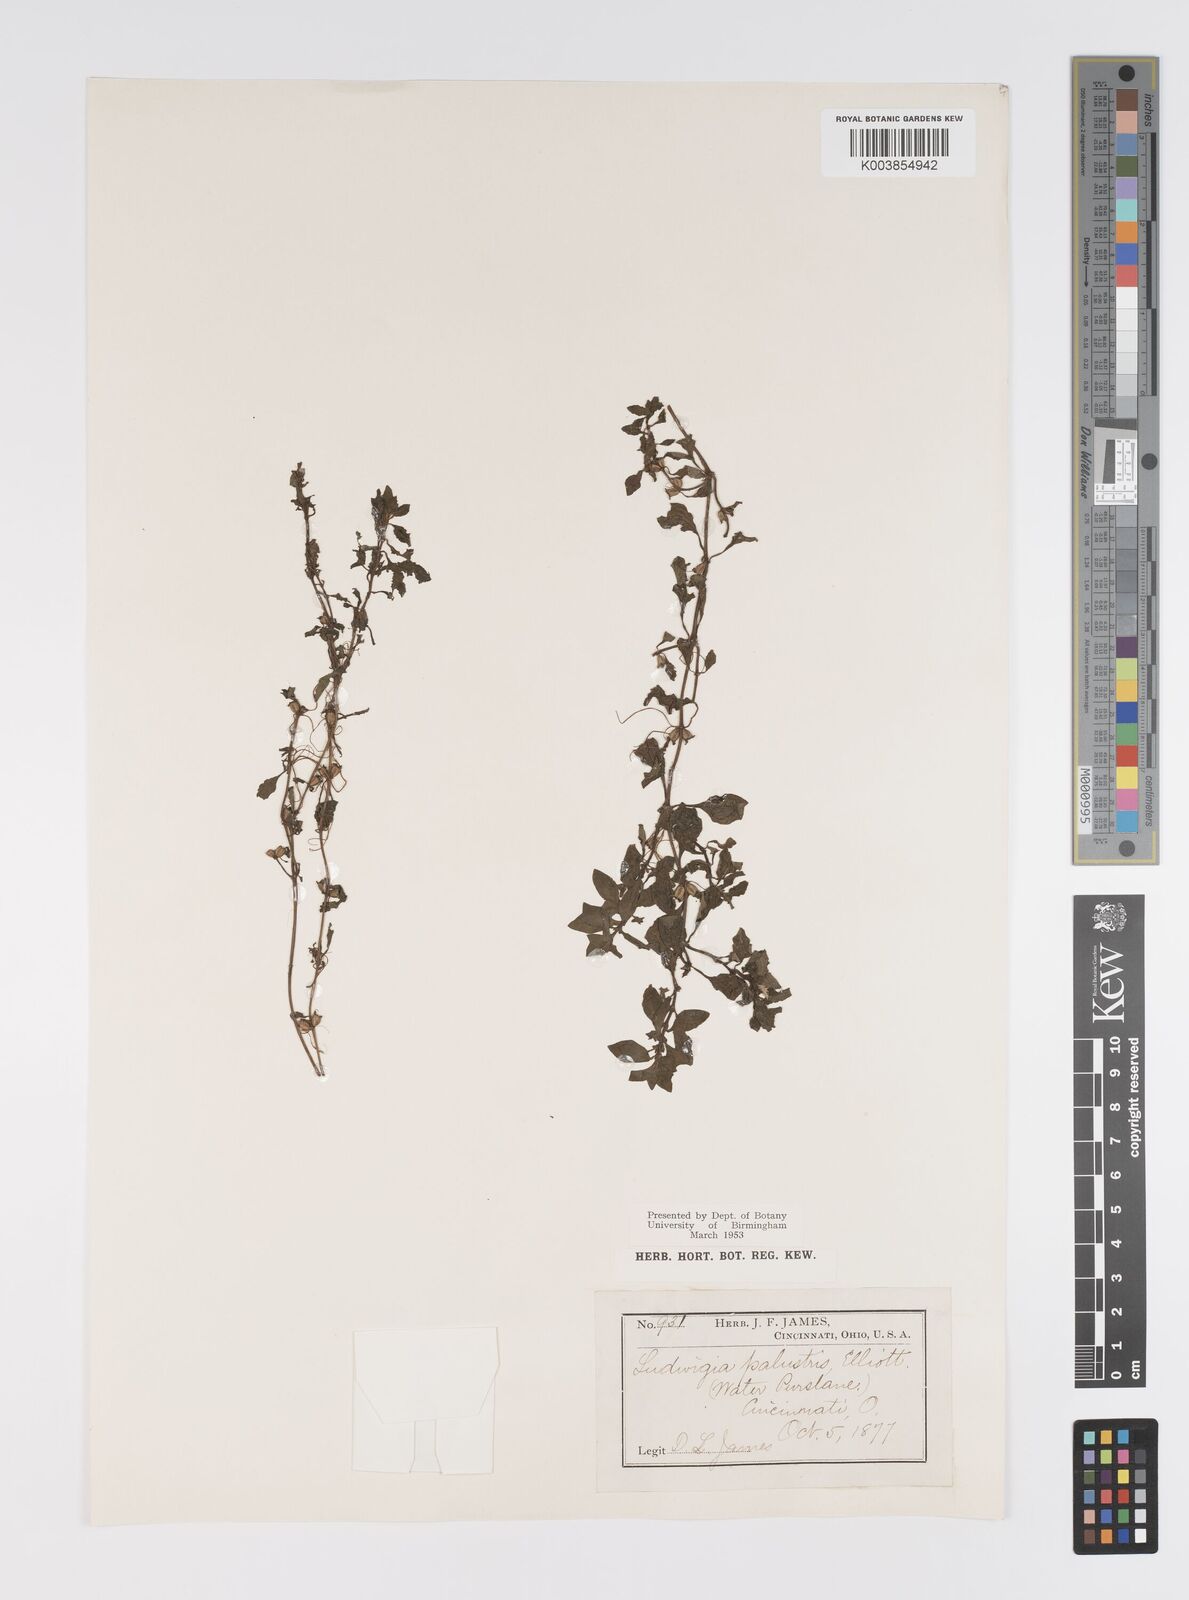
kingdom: Plantae
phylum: Tracheophyta
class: Magnoliopsida
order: Myrtales
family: Onagraceae
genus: Ludwigia
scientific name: Ludwigia palustris
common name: Hampshire-purslane
